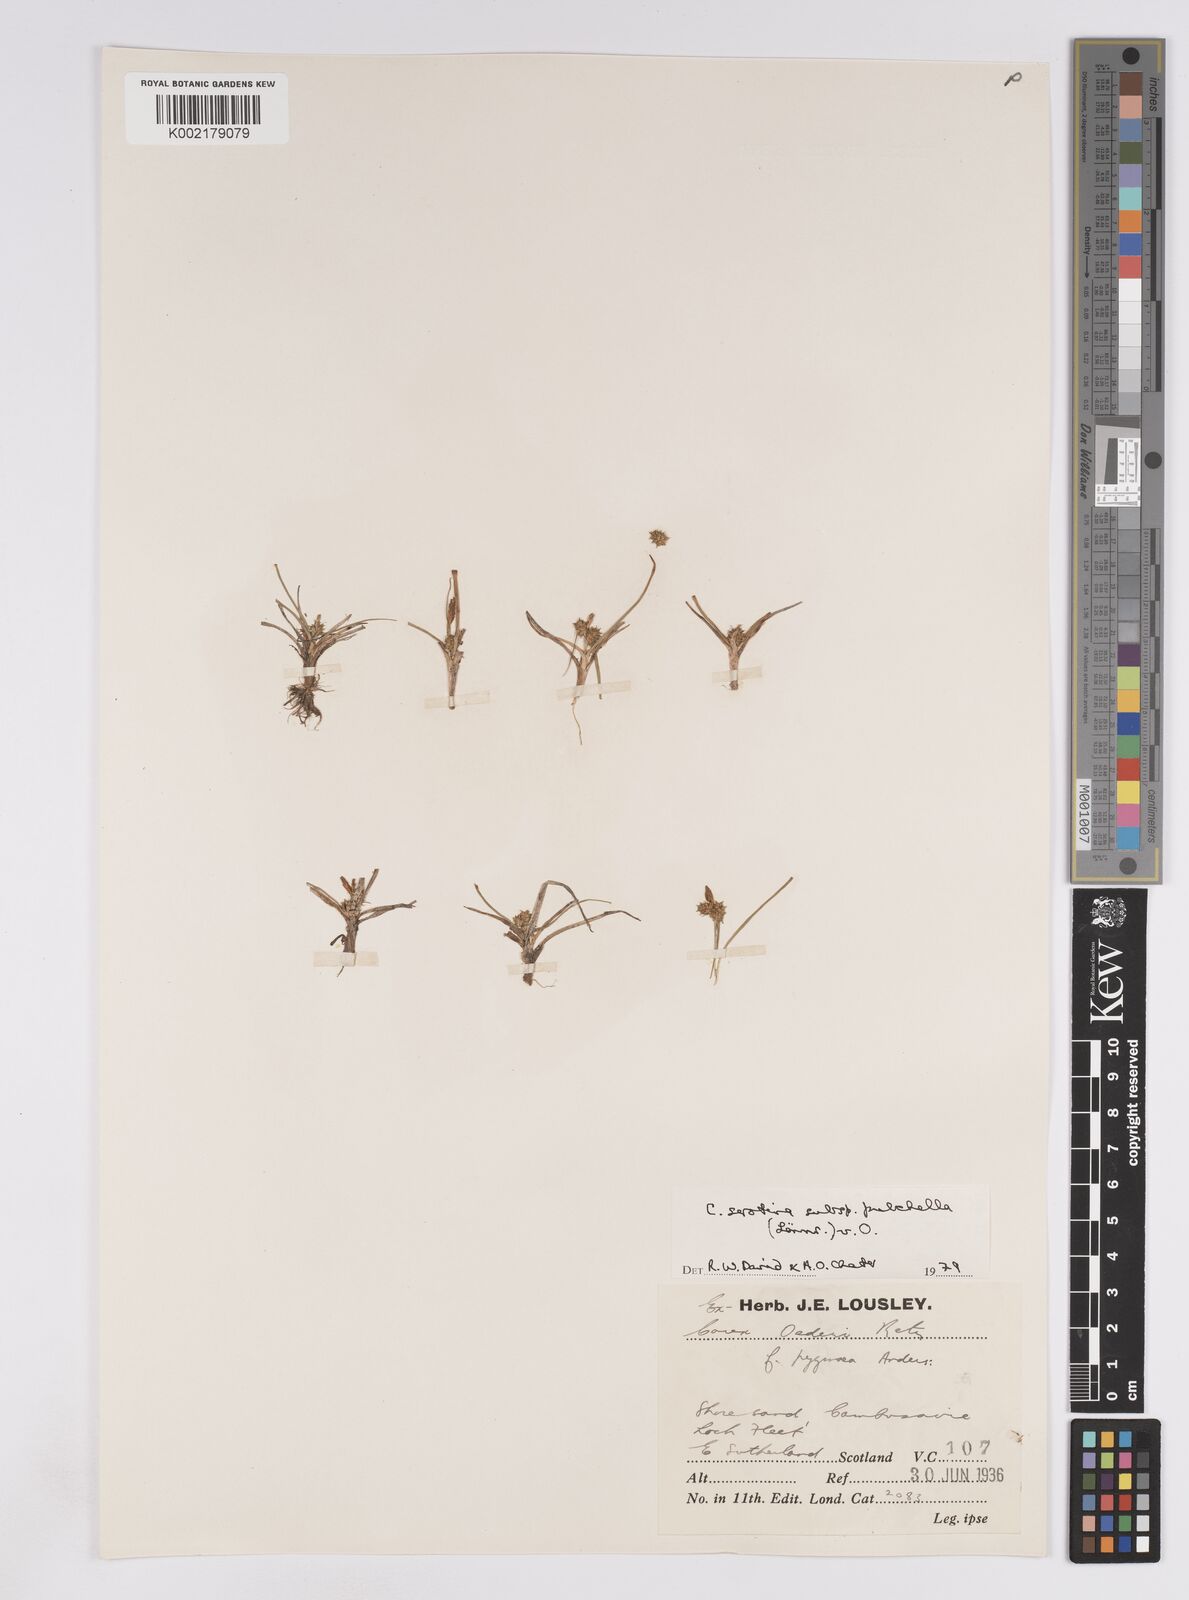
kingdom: Plantae
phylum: Tracheophyta
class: Liliopsida
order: Poales
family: Cyperaceae
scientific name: Cyperaceae
